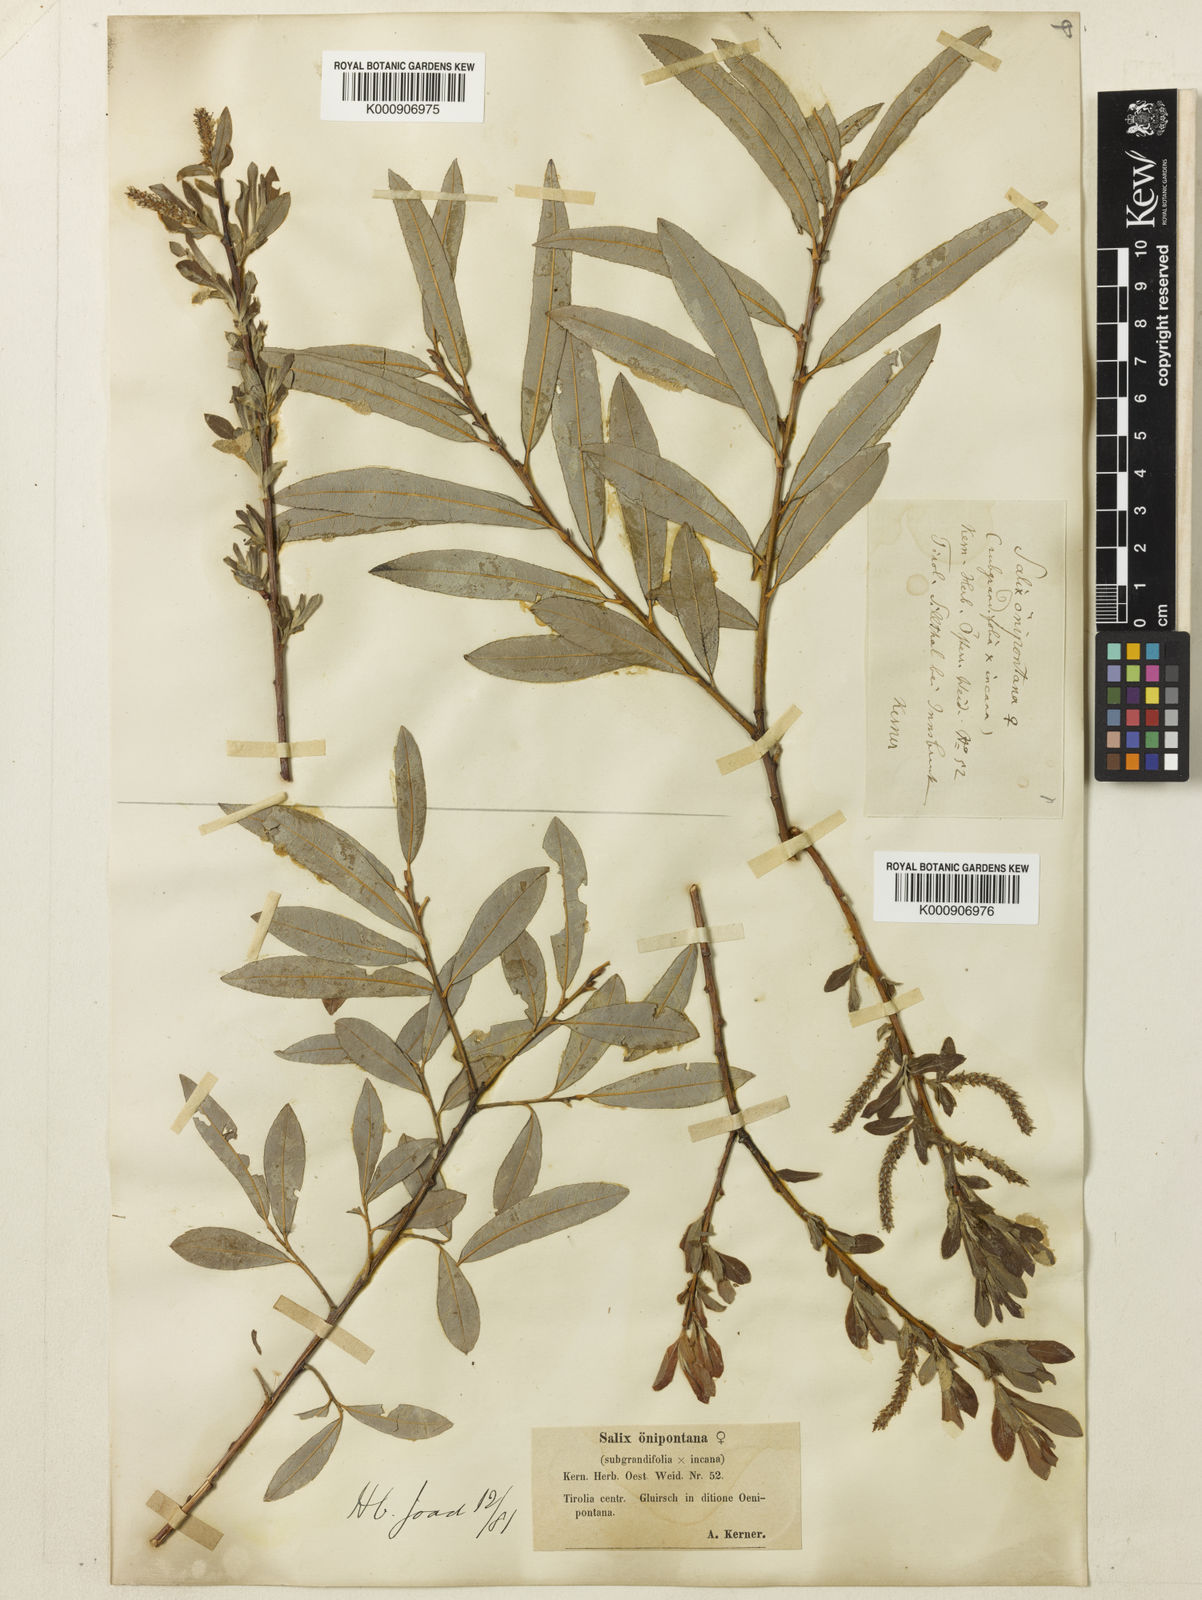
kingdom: Plantae
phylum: Tracheophyta
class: Magnoliopsida
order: Malpighiales
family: Salicaceae
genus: Salix
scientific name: Salix appendiculata
